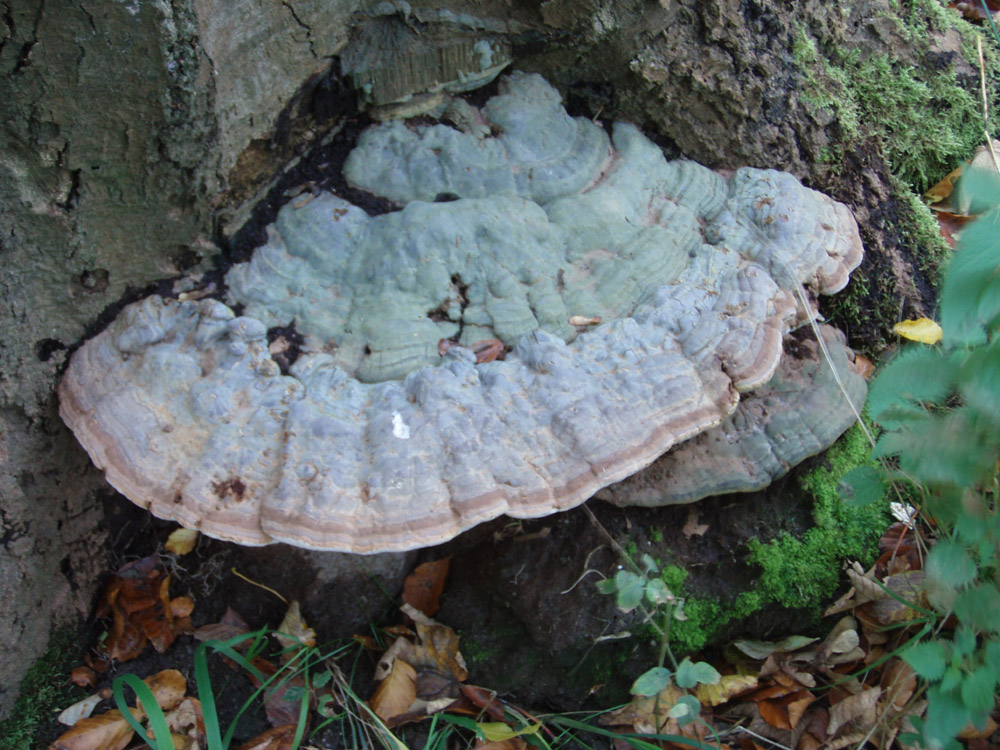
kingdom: Fungi
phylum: Basidiomycota
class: Agaricomycetes
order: Polyporales
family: Polyporaceae
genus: Ganoderma
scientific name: Ganoderma pfeifferi
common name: kobberrød lakporesvamp
